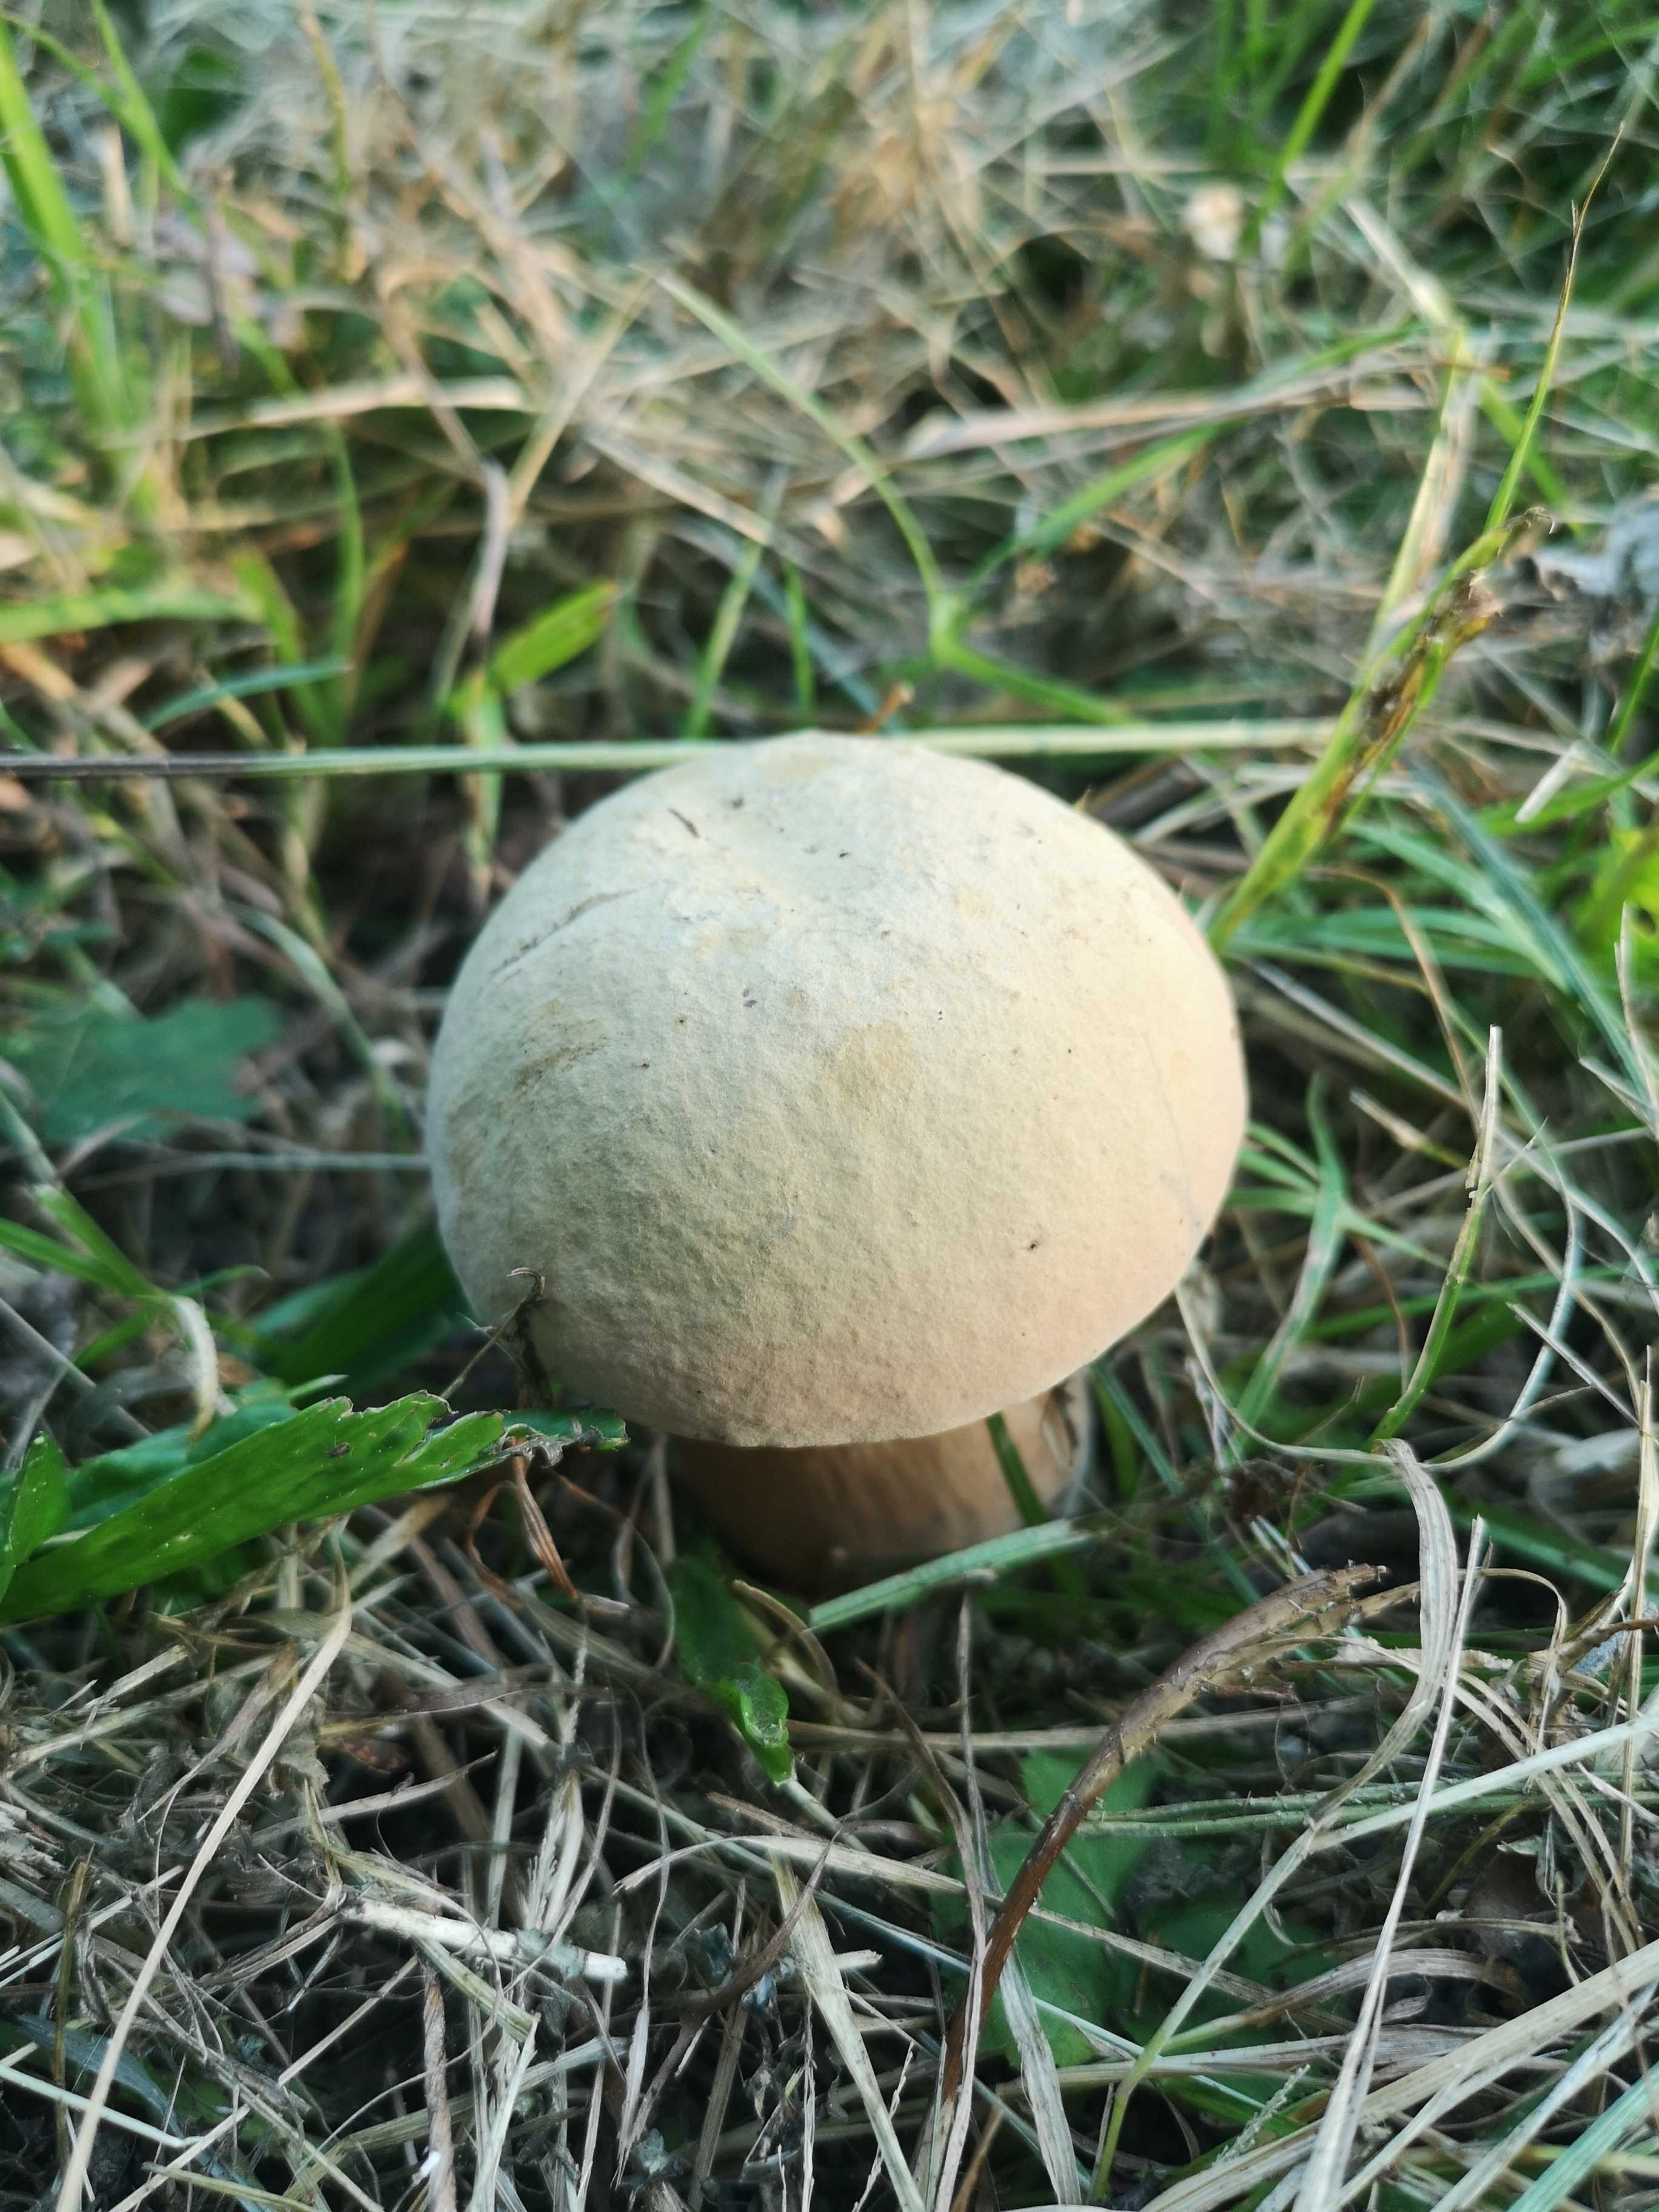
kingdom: Fungi
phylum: Basidiomycota
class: Agaricomycetes
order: Boletales
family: Boletaceae
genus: Suillellus
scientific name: Suillellus luridus
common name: netstokket indigorørhat
